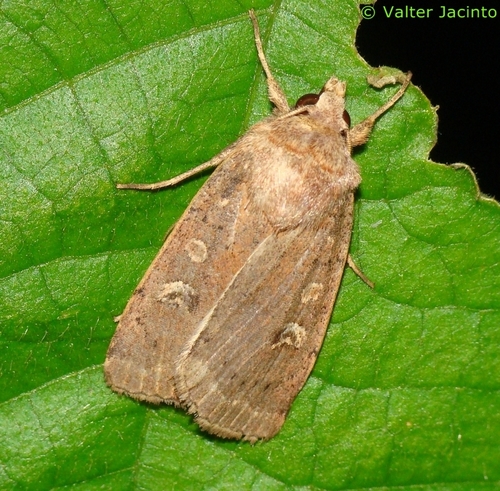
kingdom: Animalia
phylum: Arthropoda
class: Insecta
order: Lepidoptera
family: Noctuidae
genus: Xestia
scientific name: Xestia xanthographa
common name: Square-spot rustic
